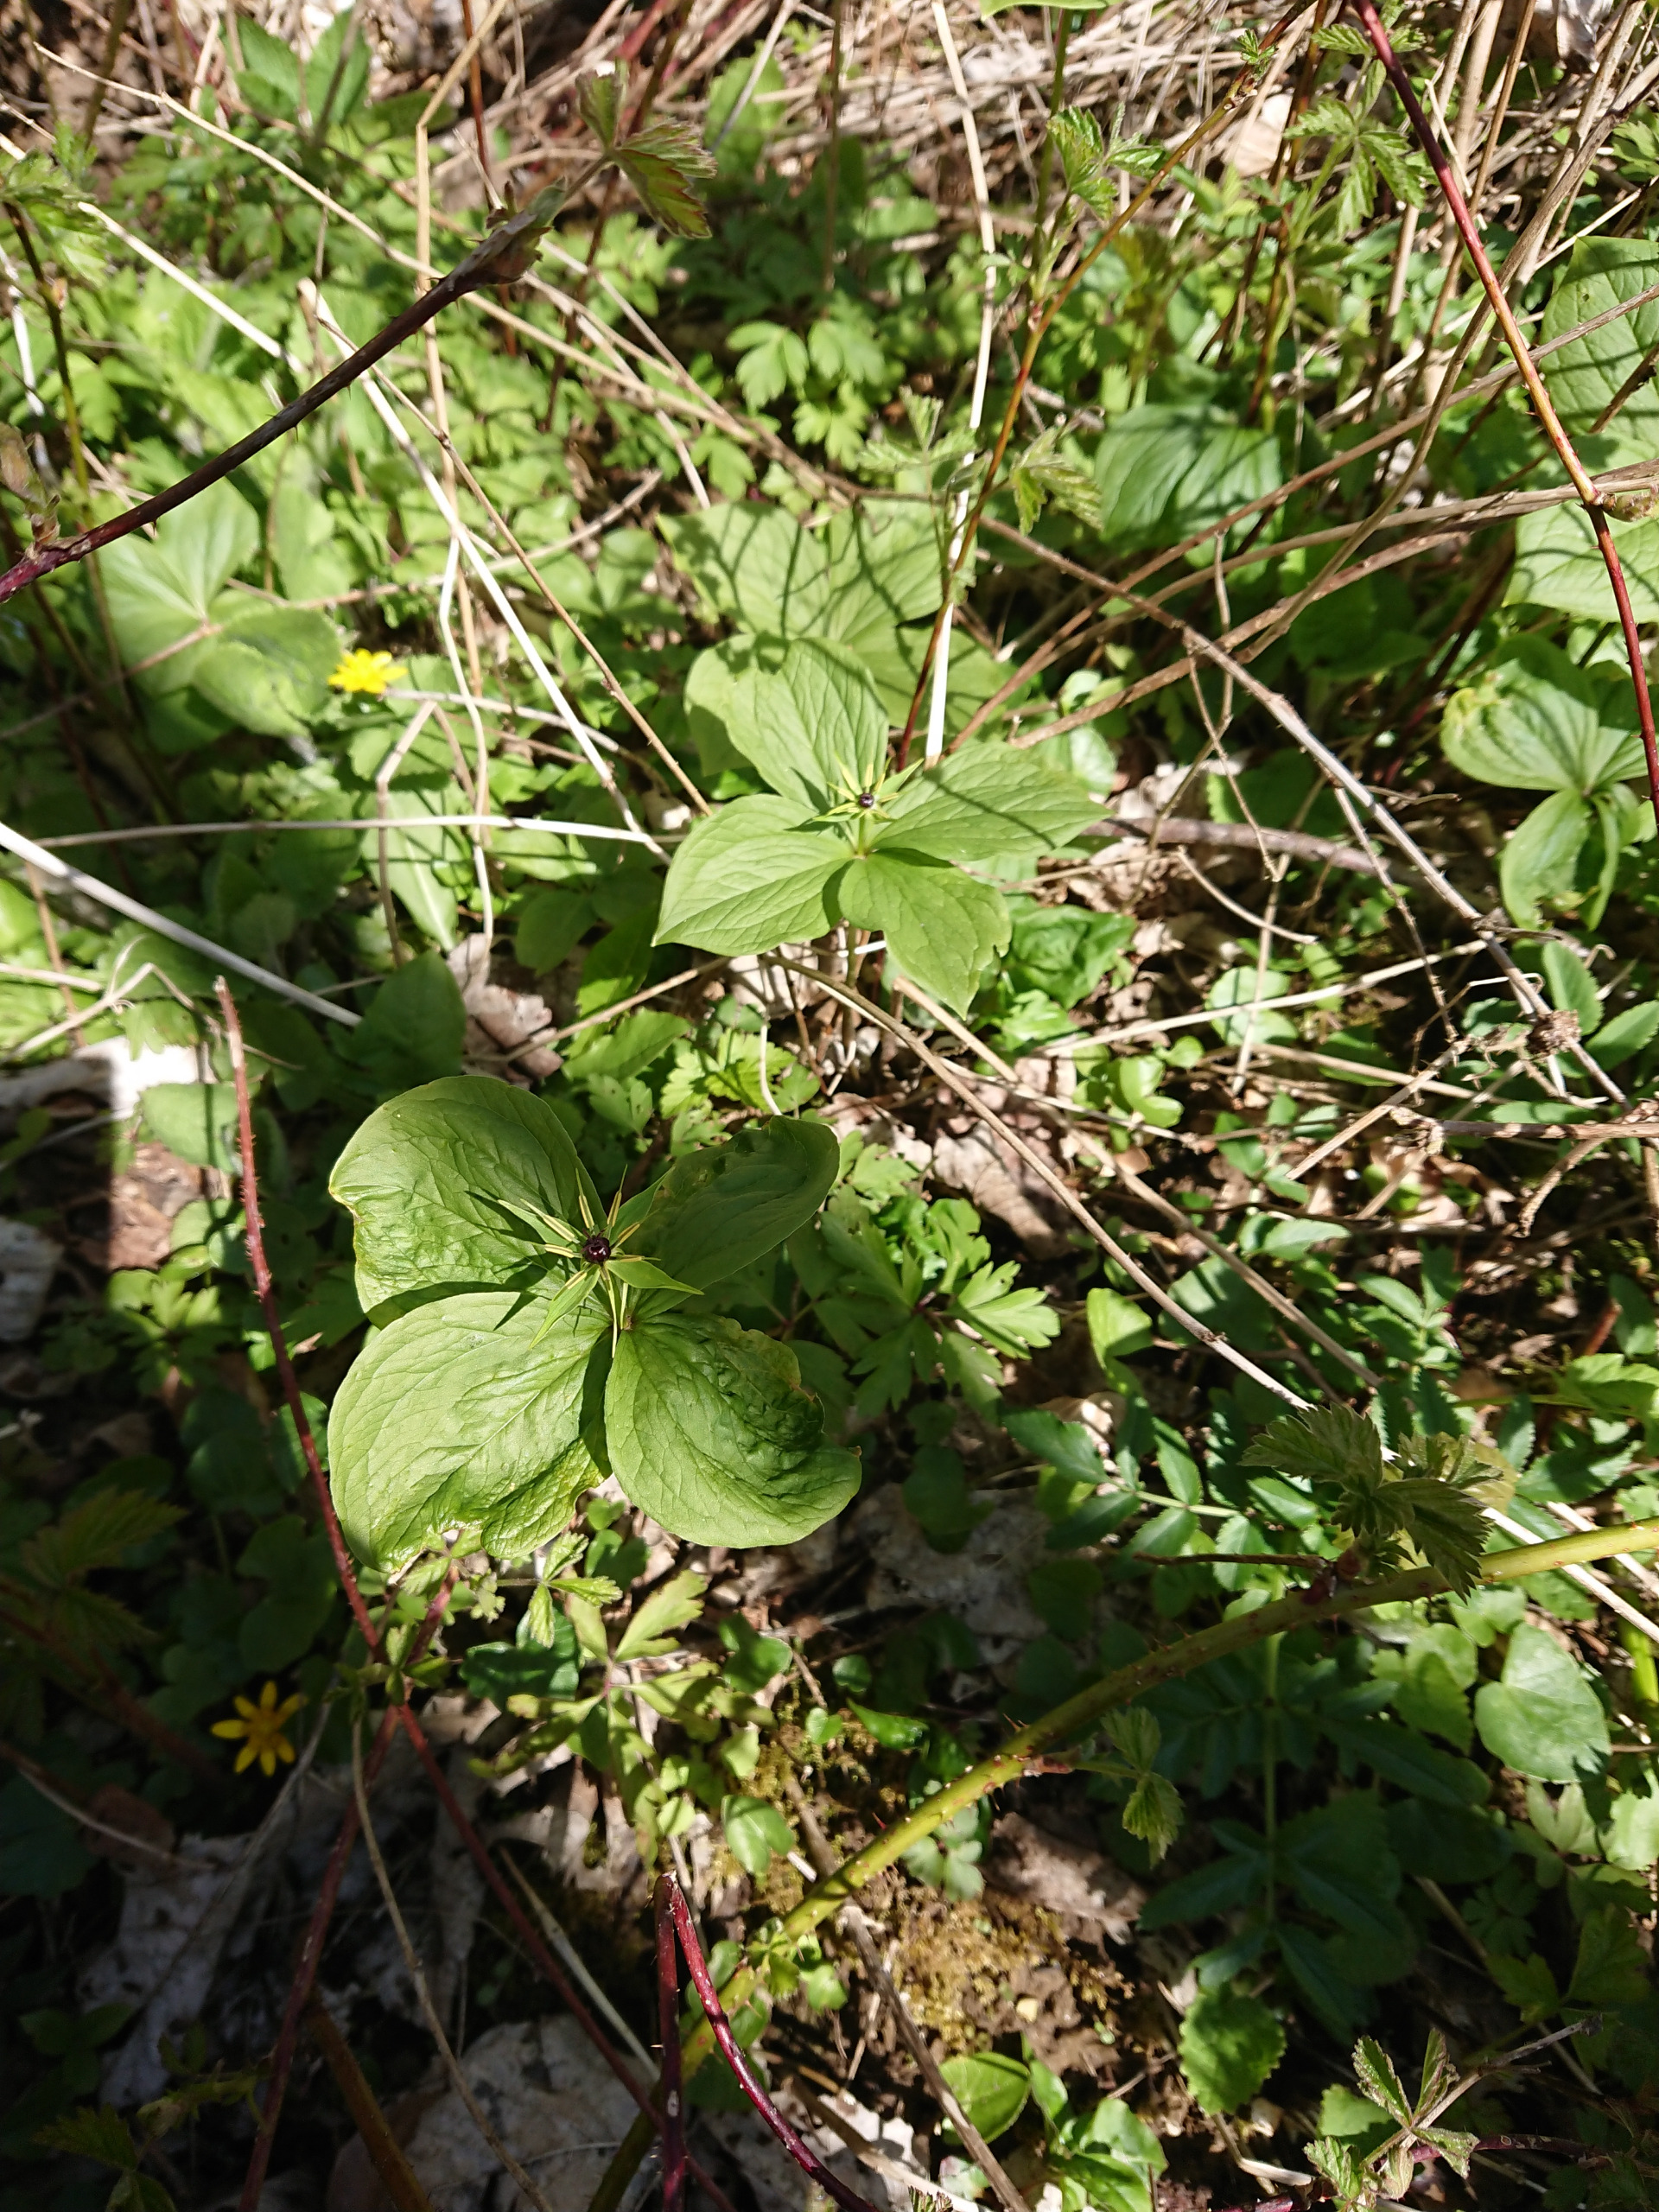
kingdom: Plantae
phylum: Tracheophyta
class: Liliopsida
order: Liliales
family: Melanthiaceae
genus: Paris
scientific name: Paris quadrifolia
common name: Firblad
